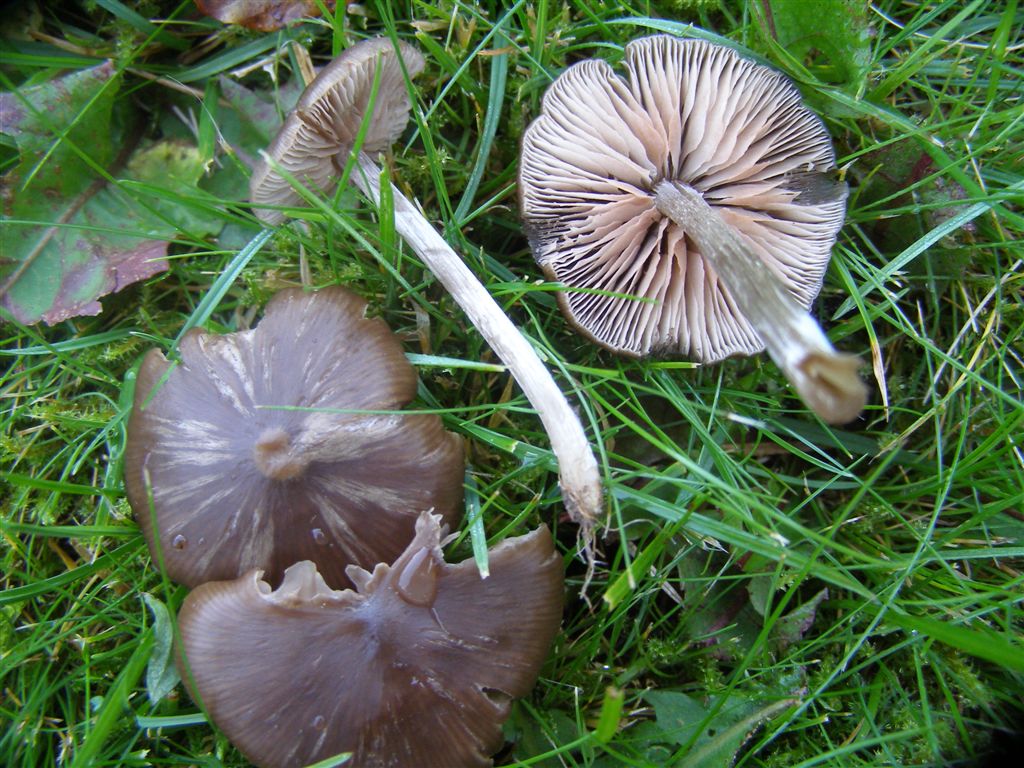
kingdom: Fungi
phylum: Basidiomycota
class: Agaricomycetes
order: Agaricales
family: Entolomataceae
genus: Entoloma
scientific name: Entoloma sericeum
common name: silkeglinsende rødblad
